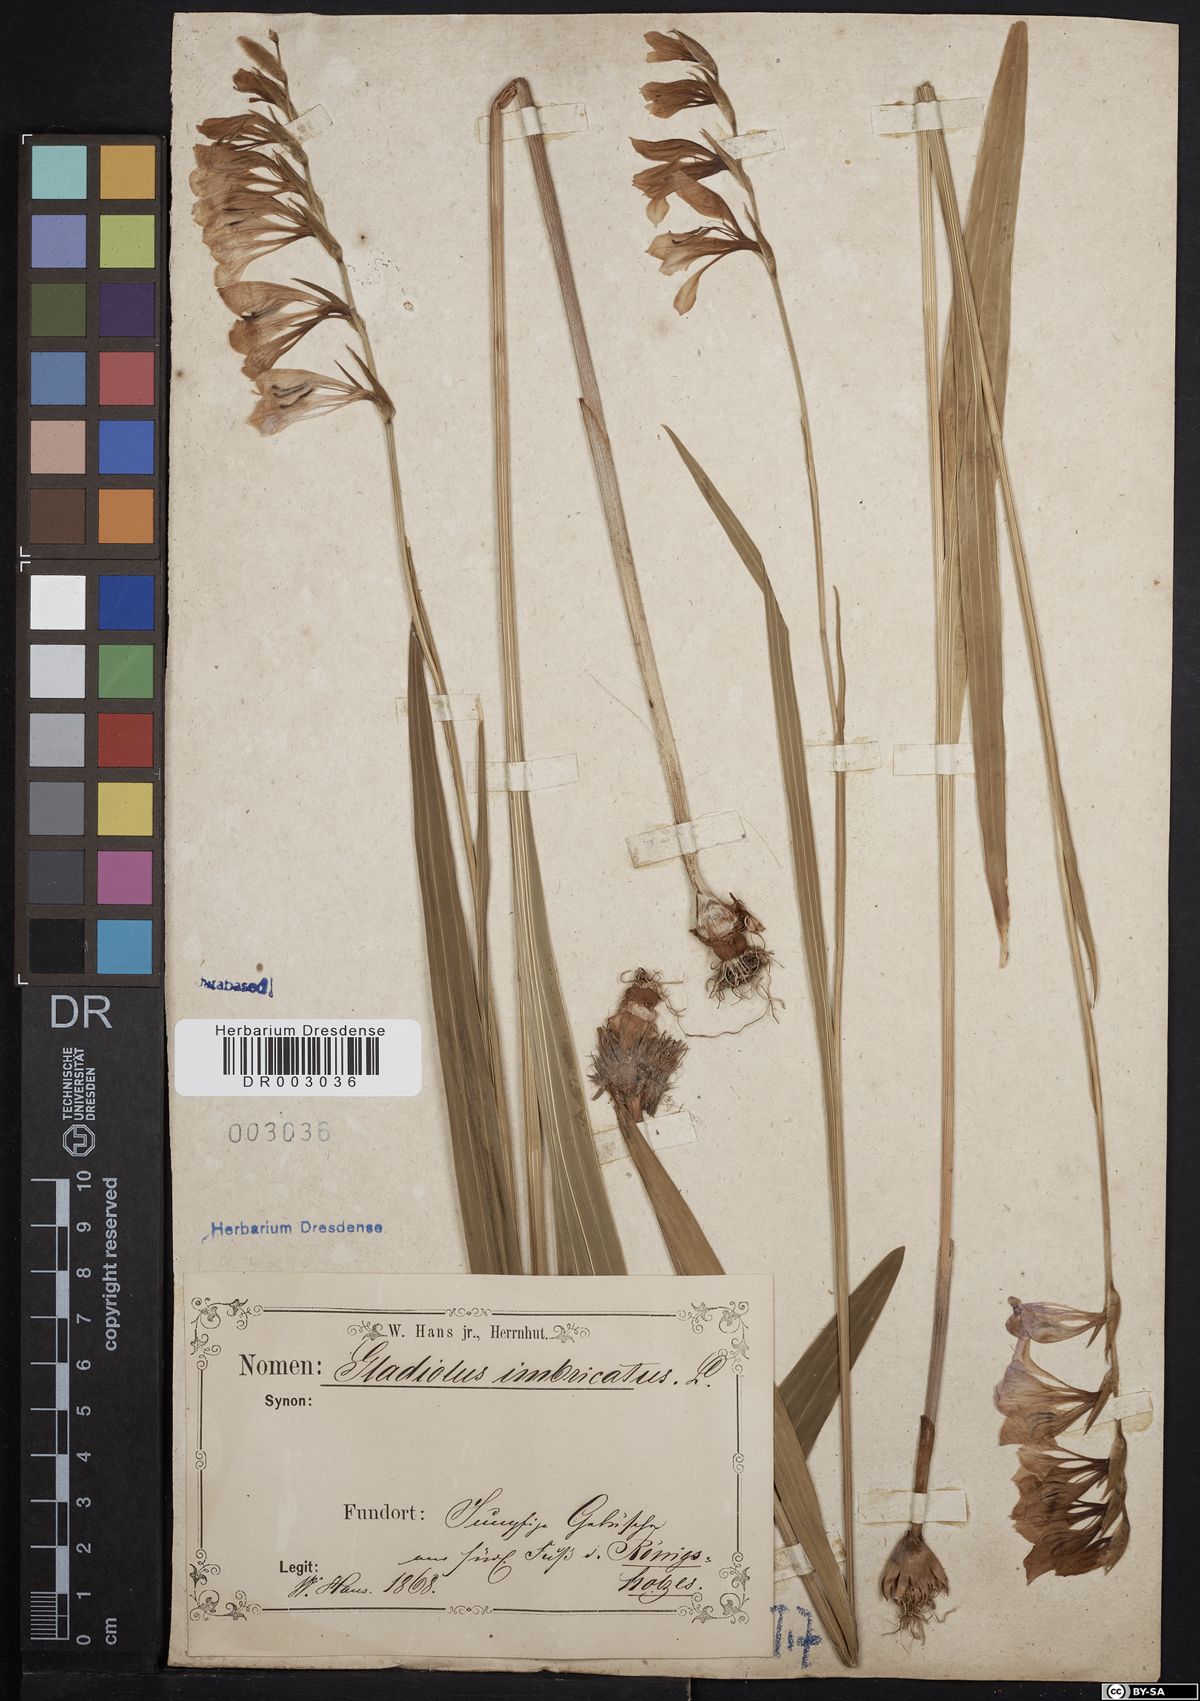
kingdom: Plantae
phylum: Tracheophyta
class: Liliopsida
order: Asparagales
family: Iridaceae
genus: Gladiolus
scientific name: Gladiolus imbricatus
